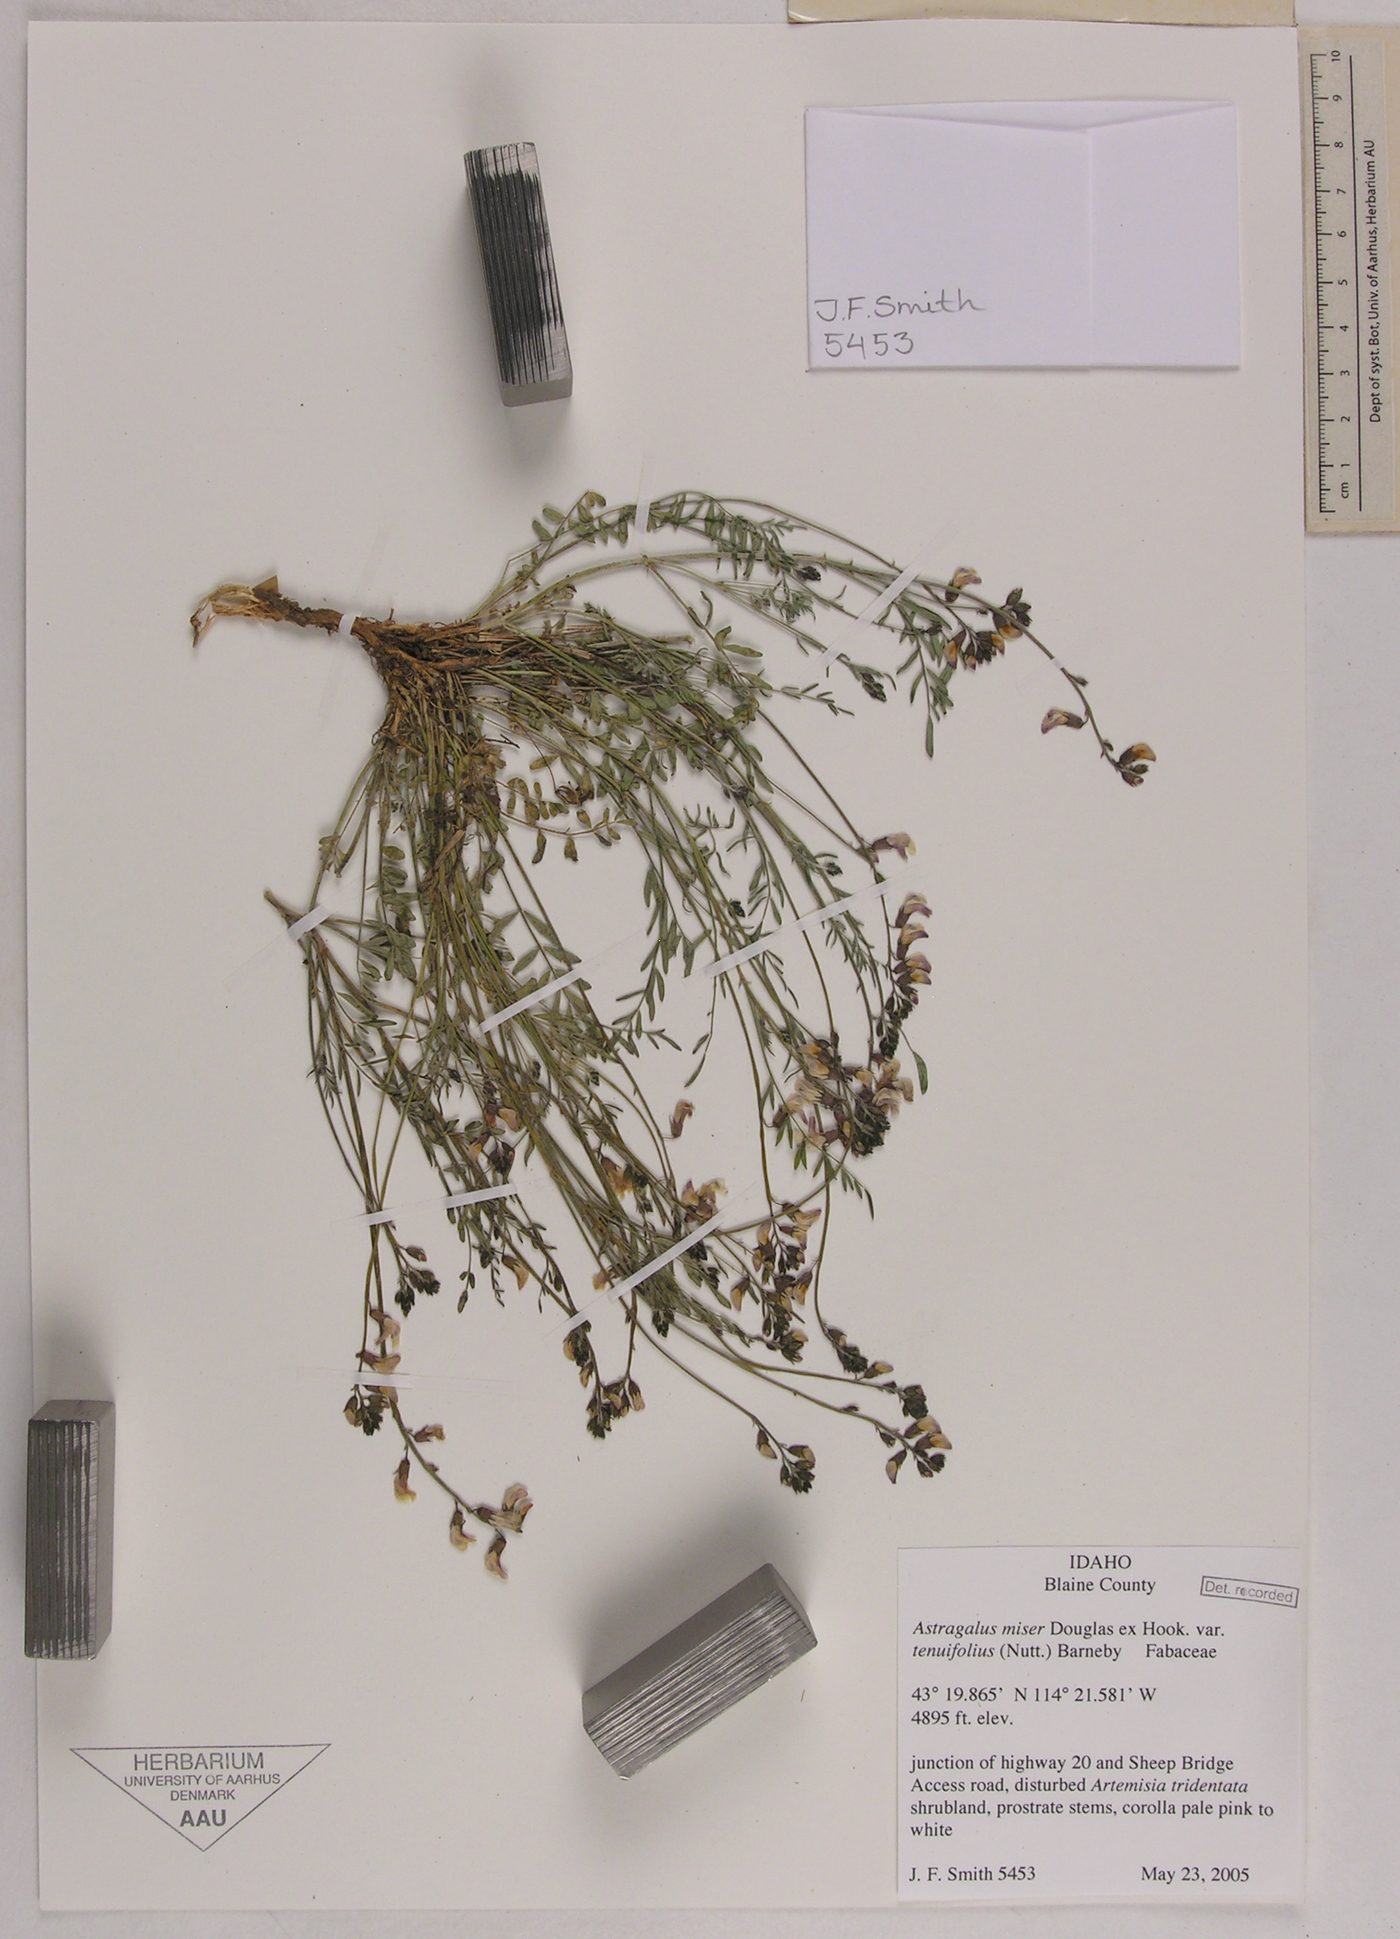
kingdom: Plantae
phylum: Tracheophyta
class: Magnoliopsida
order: Fabales
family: Fabaceae
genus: Astragalus
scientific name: Astragalus miser
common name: Timber milkvetch
